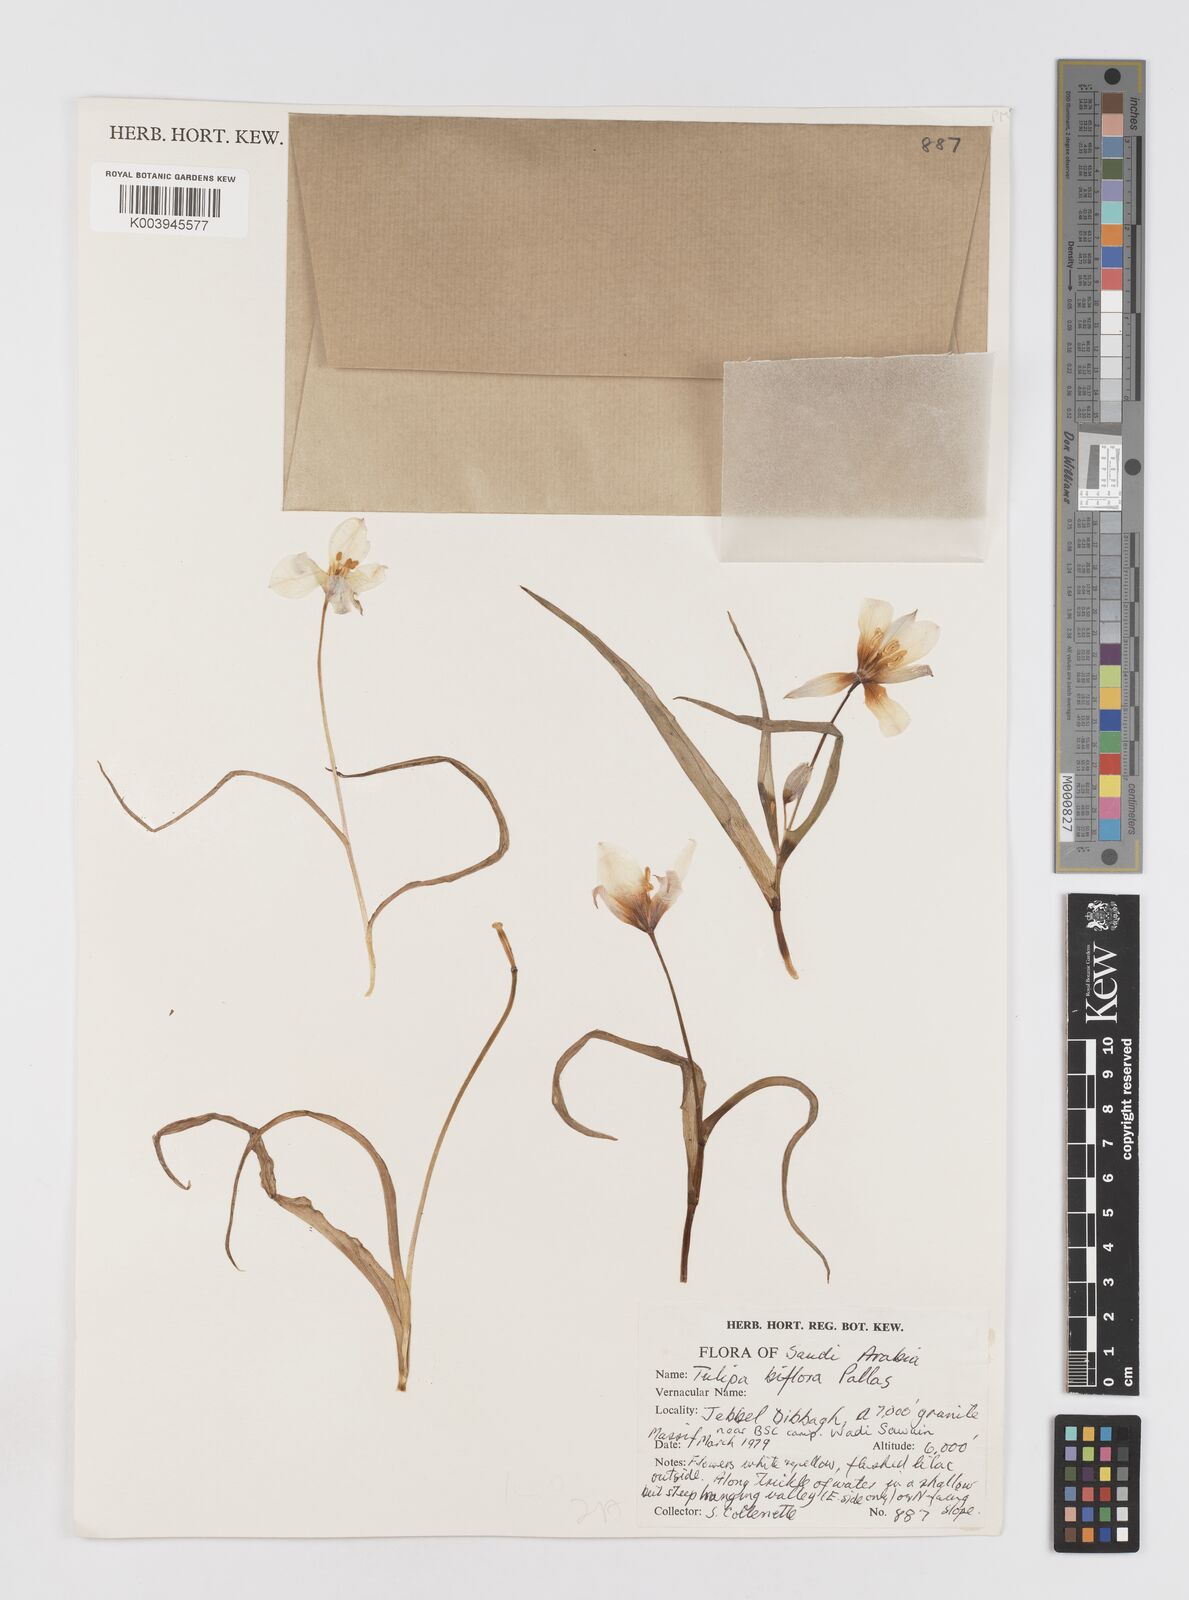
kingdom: Plantae
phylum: Tracheophyta
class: Liliopsida
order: Liliales
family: Liliaceae
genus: Tulipa
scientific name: Tulipa biflora
